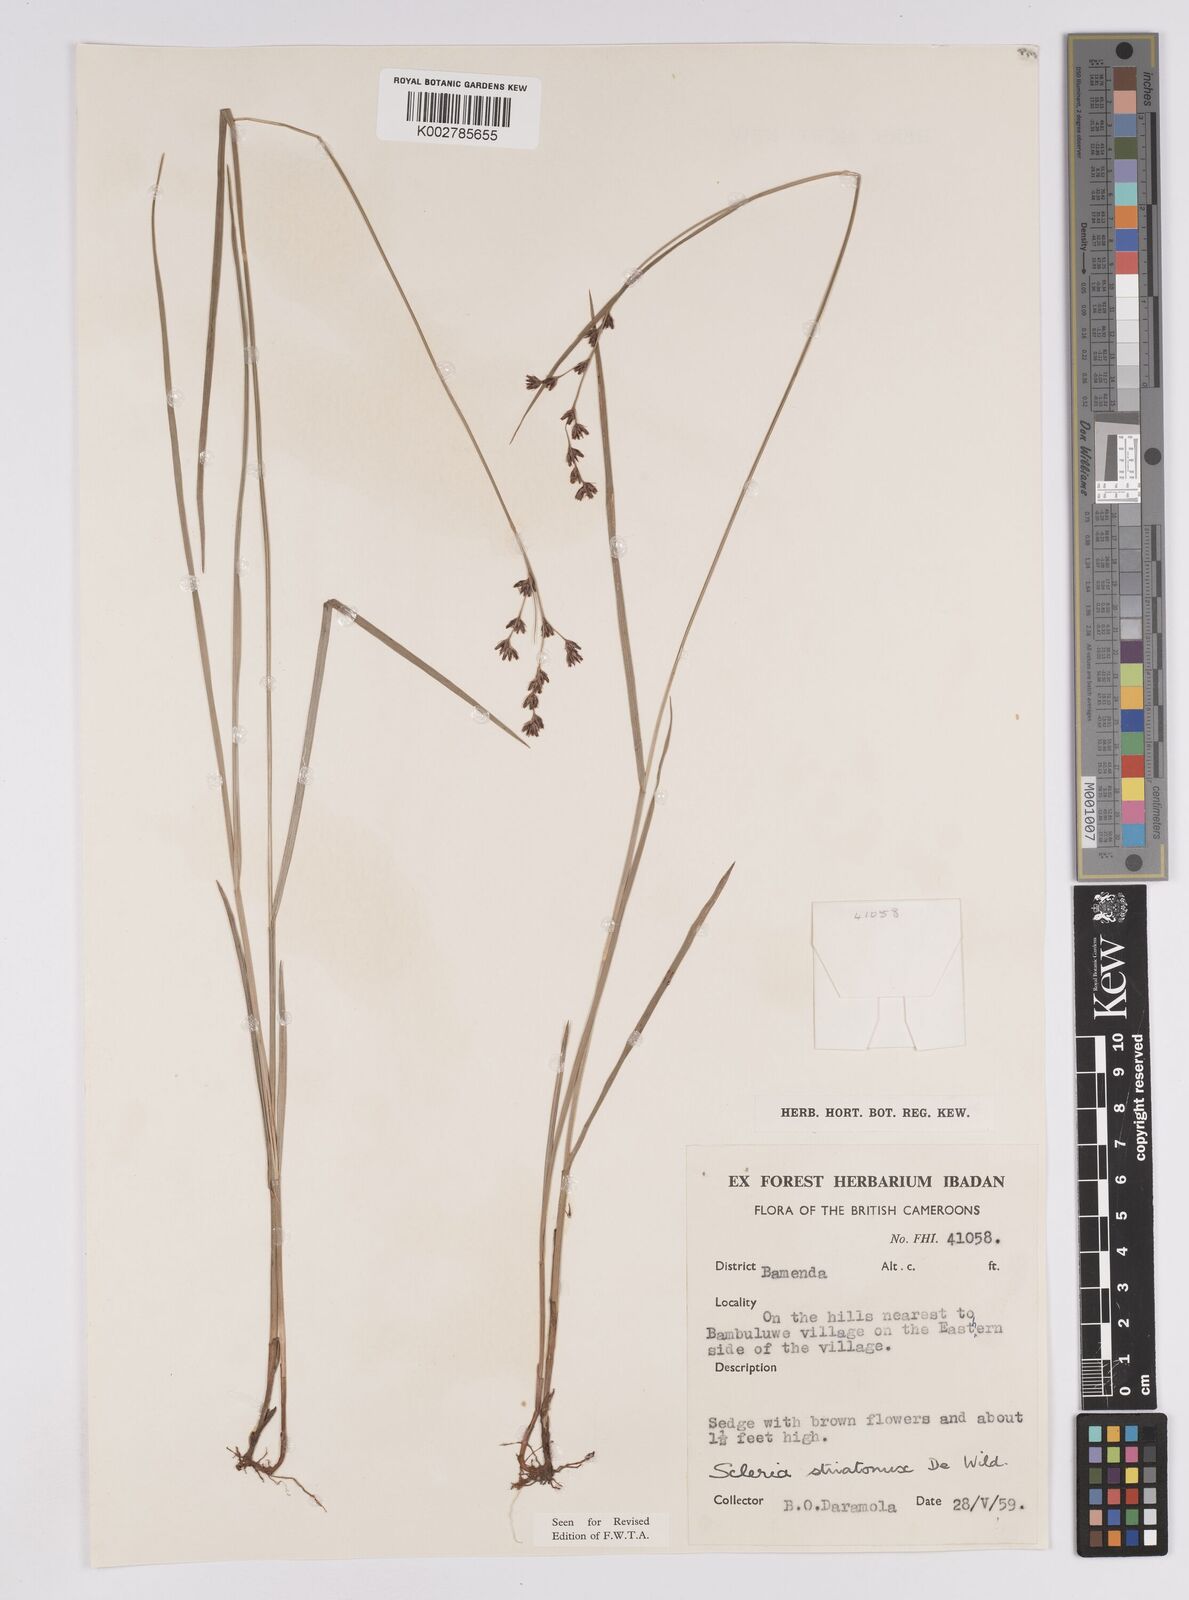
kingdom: Plantae
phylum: Tracheophyta
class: Liliopsida
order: Poales
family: Cyperaceae
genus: Scleria
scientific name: Scleria woodii
